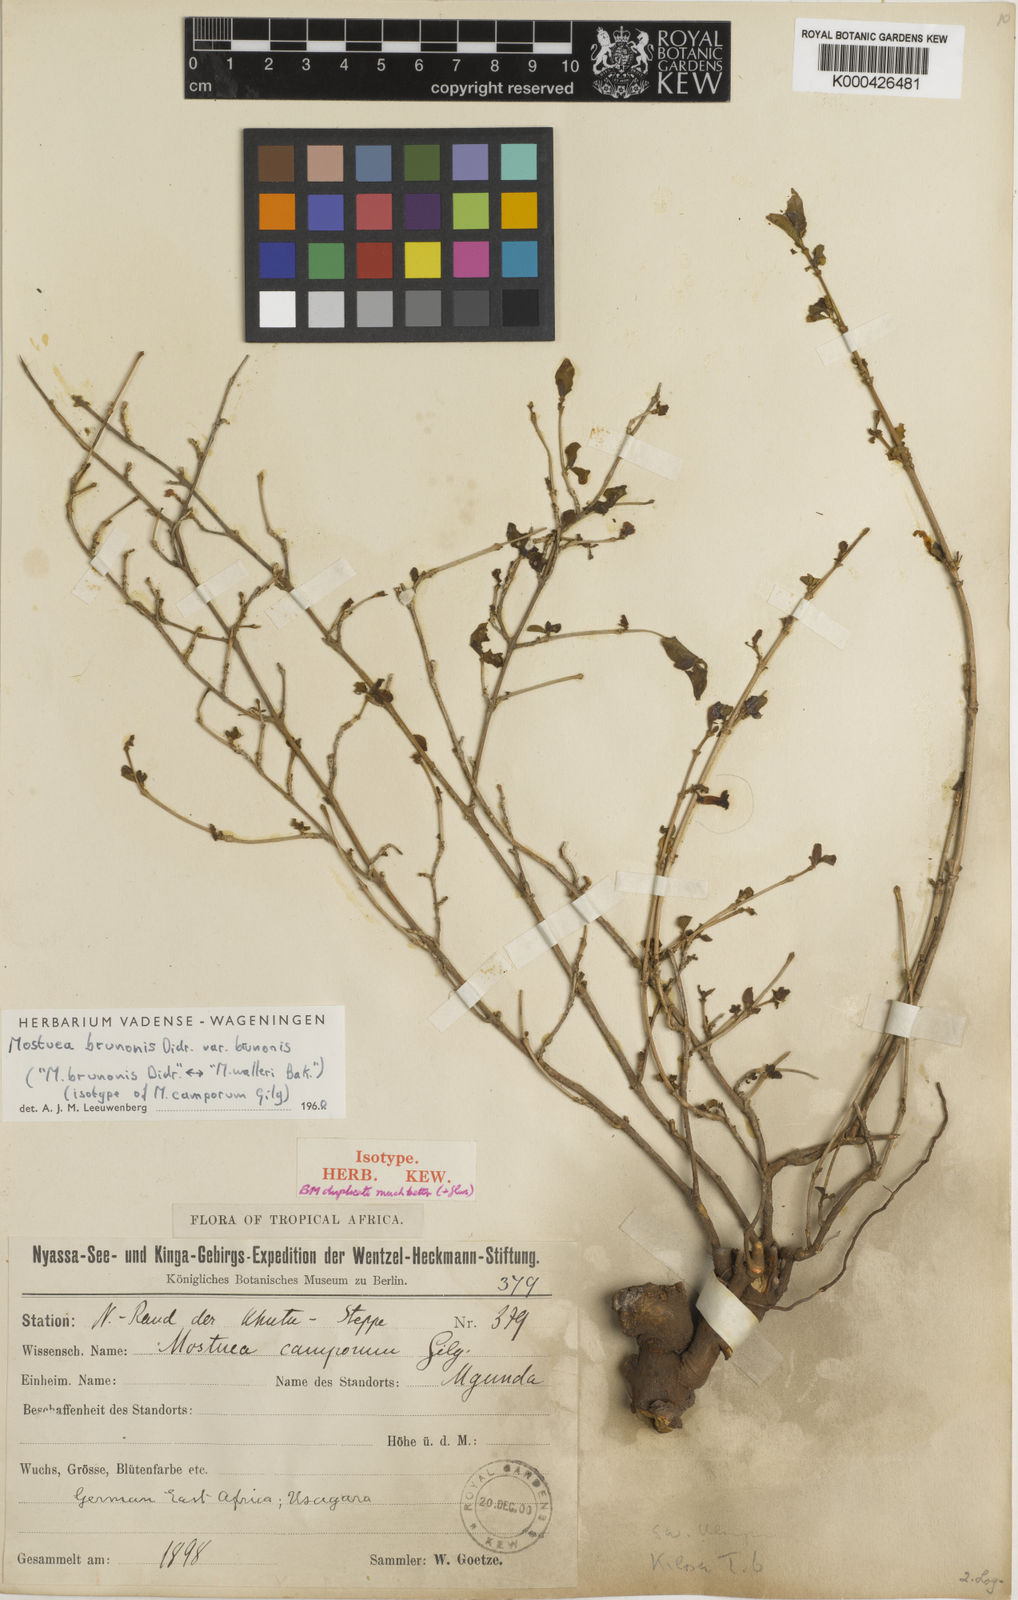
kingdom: Plantae
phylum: Tracheophyta
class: Magnoliopsida
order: Gentianales
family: Gelsemiaceae
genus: Mostuea
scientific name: Mostuea brunonis
